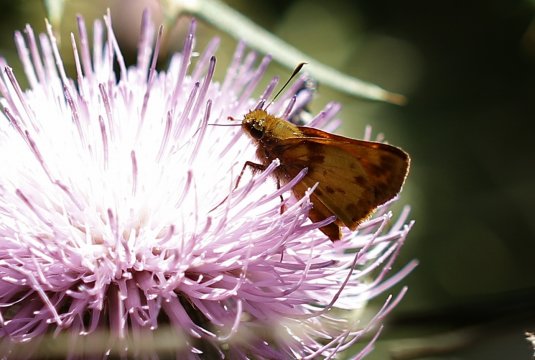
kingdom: Animalia
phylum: Arthropoda
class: Insecta
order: Lepidoptera
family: Hesperiidae
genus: Lon
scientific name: Lon zabulon
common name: Zabulon Skipper
